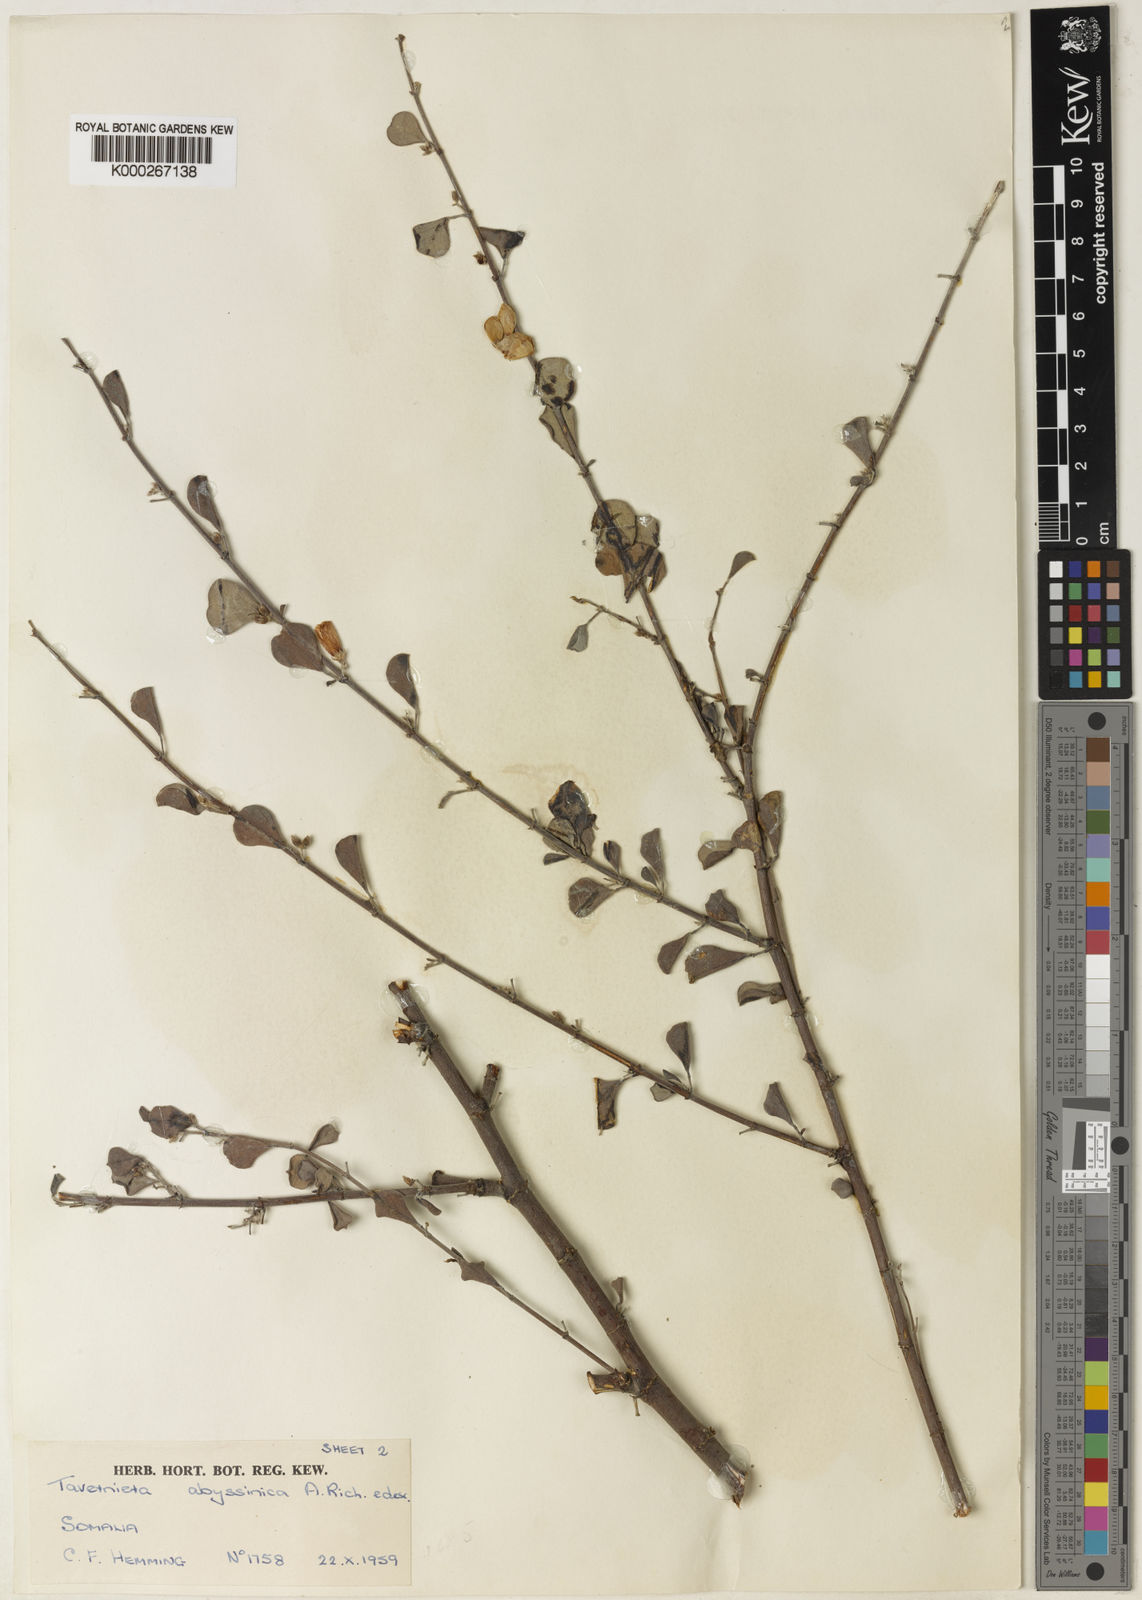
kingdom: Plantae
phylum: Tracheophyta
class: Magnoliopsida
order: Fabales
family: Fabaceae
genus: Taverniera
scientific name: Taverniera multinoda
